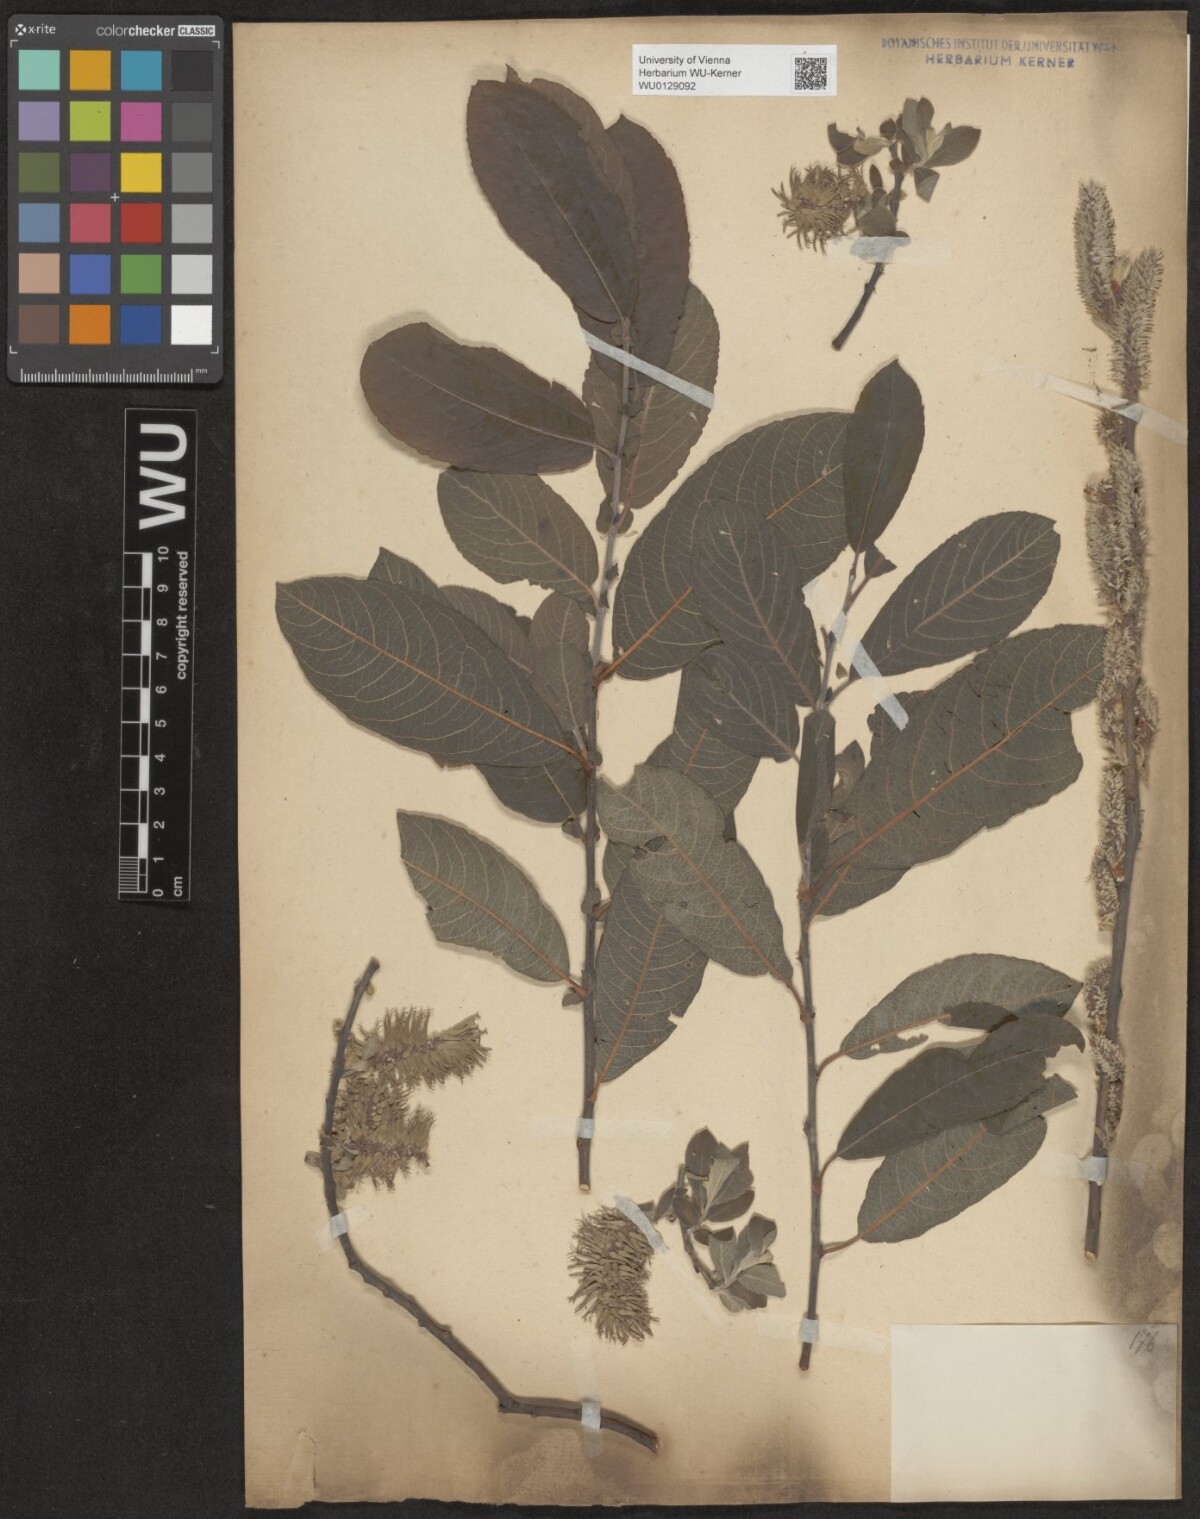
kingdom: Plantae
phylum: Tracheophyta
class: Magnoliopsida
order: Malpighiales
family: Salicaceae
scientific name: Salicaceae
